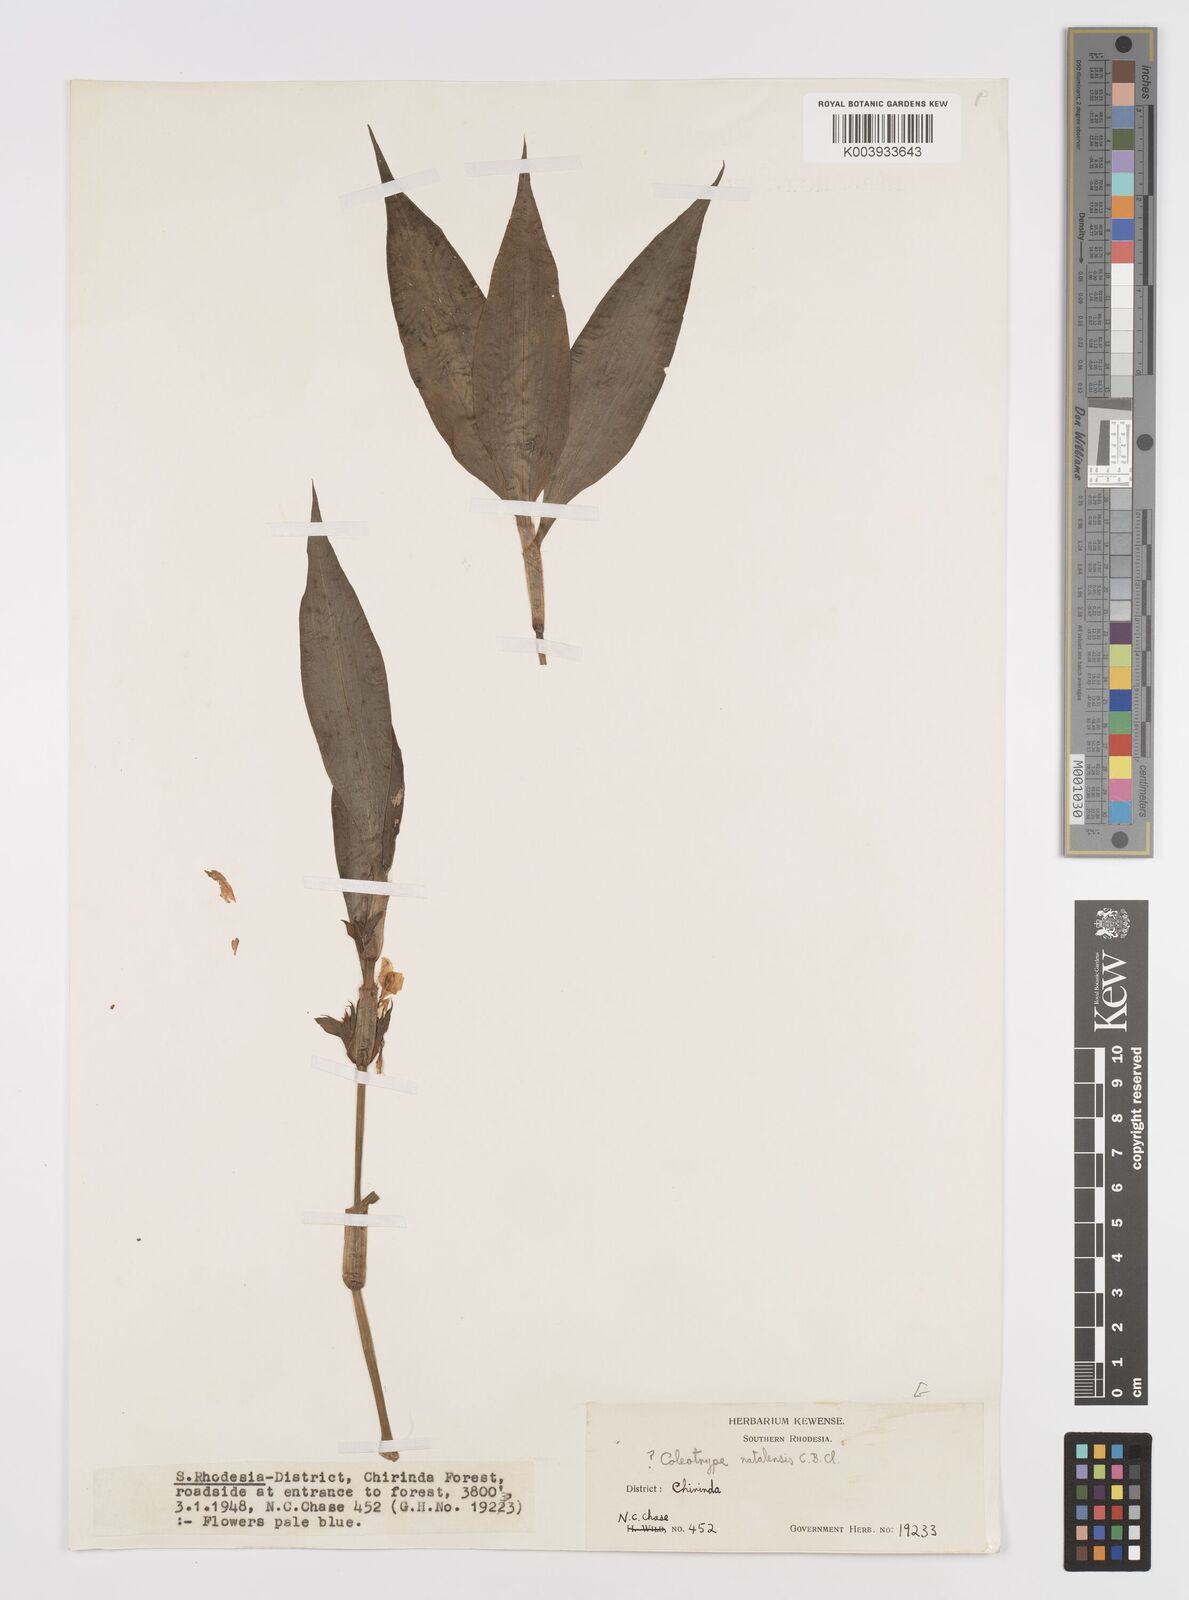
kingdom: Plantae
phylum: Tracheophyta
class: Liliopsida
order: Commelinales
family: Commelinaceae
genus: Coleotrype
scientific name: Coleotrype natalensis
